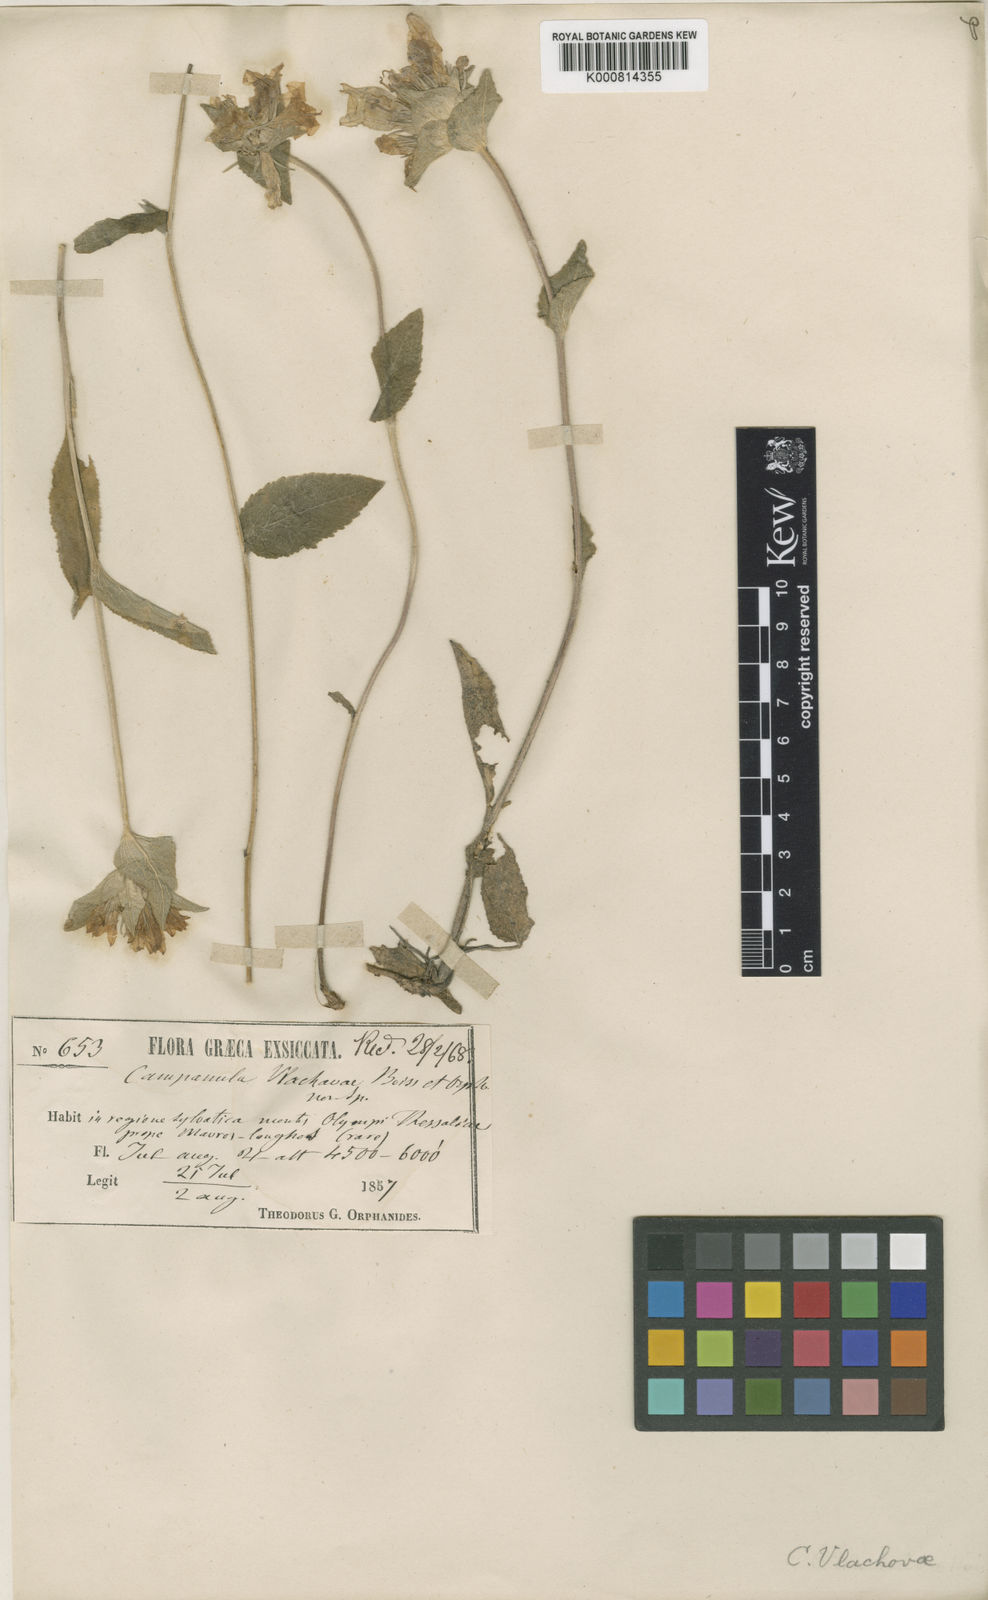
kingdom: Plantae
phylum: Tracheophyta
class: Magnoliopsida
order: Asterales
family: Campanulaceae
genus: Campanula
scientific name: Campanula stenosiphon
